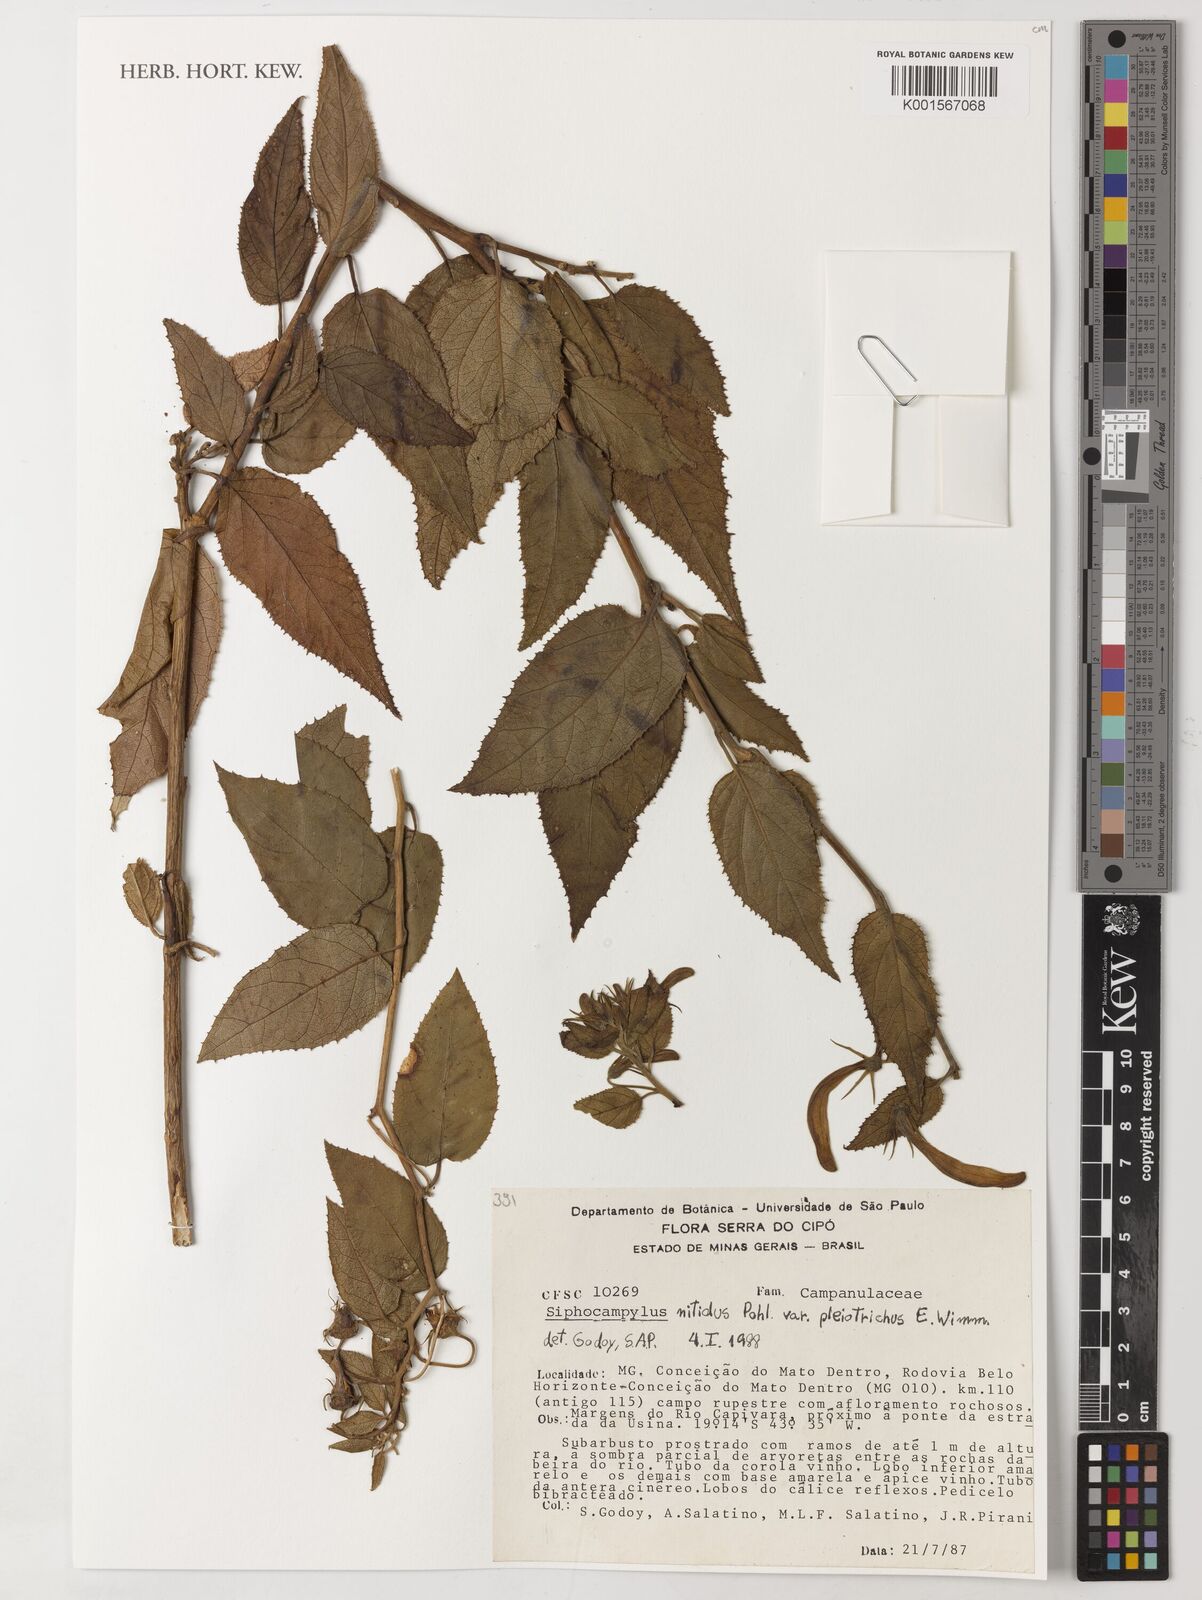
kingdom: Plantae
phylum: Tracheophyta
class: Magnoliopsida
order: Asterales
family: Campanulaceae
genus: Siphocampylus
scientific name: Siphocampylus nitidus
